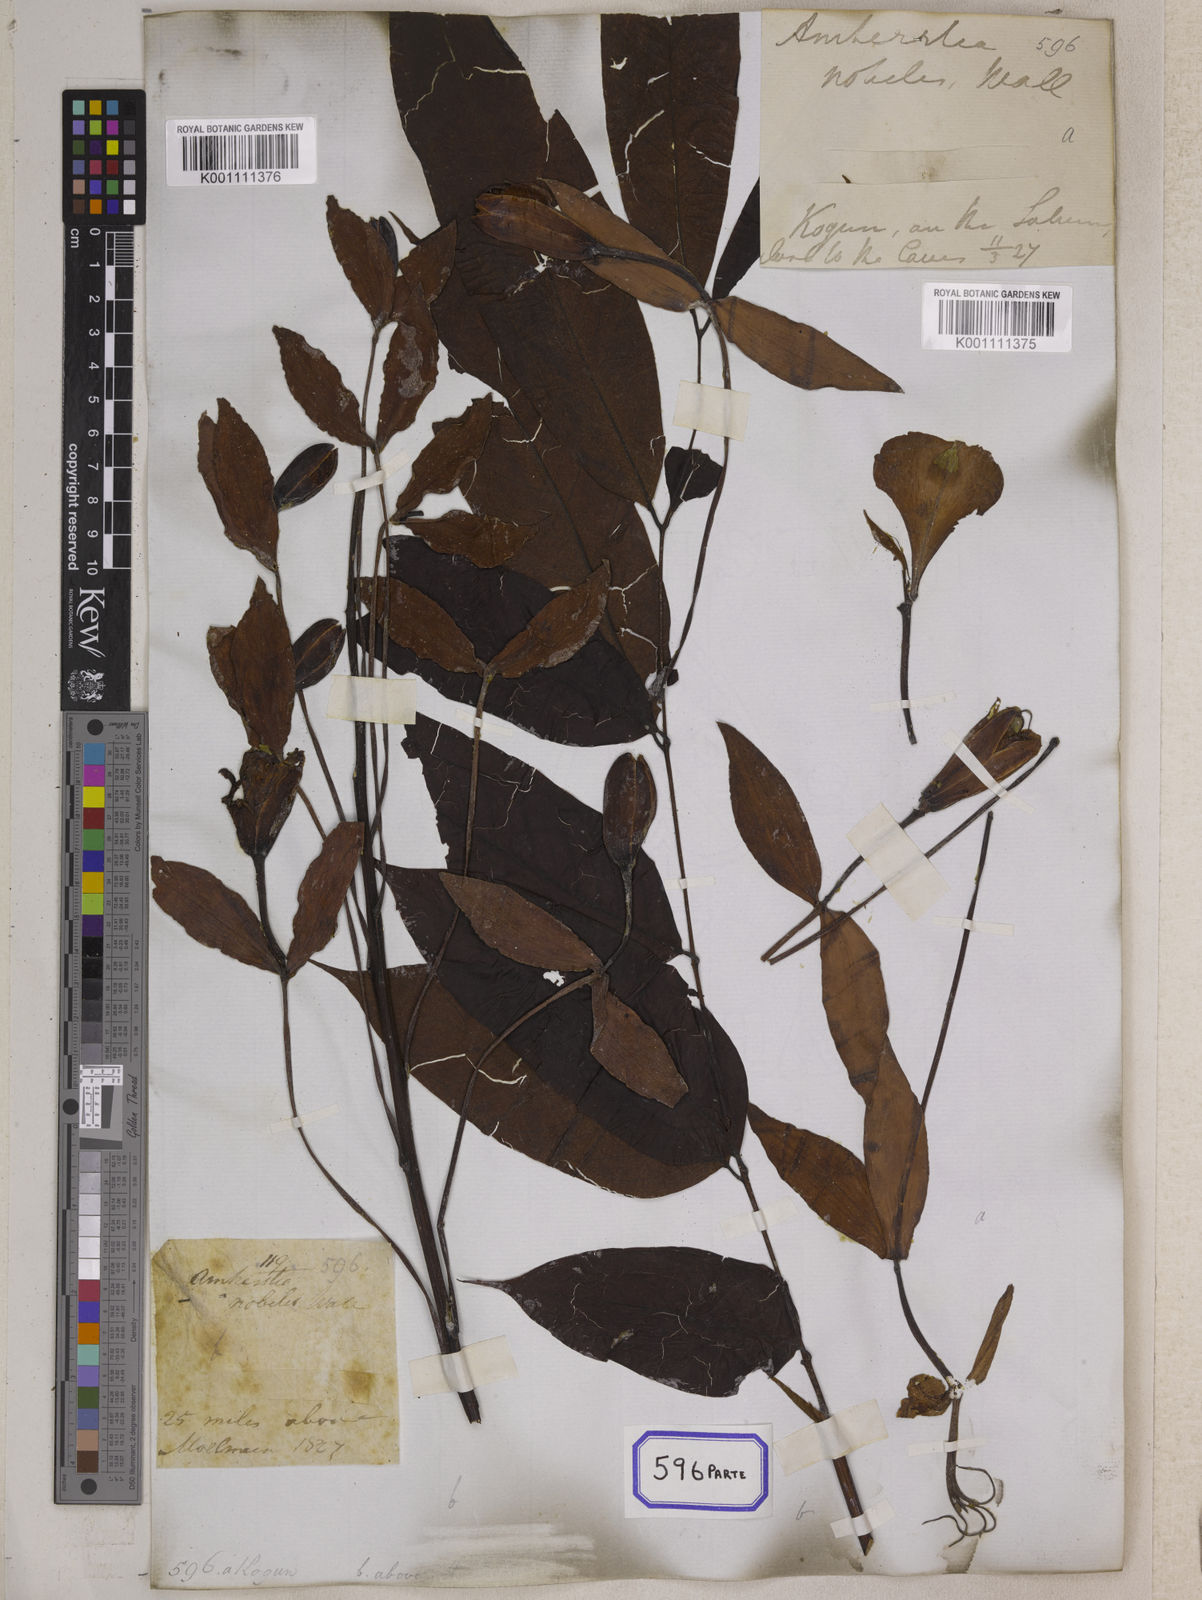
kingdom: Plantae
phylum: Tracheophyta
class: Magnoliopsida
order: Fabales
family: Fabaceae
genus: Amherstia
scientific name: Amherstia nobilis
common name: Pride-of-burma
